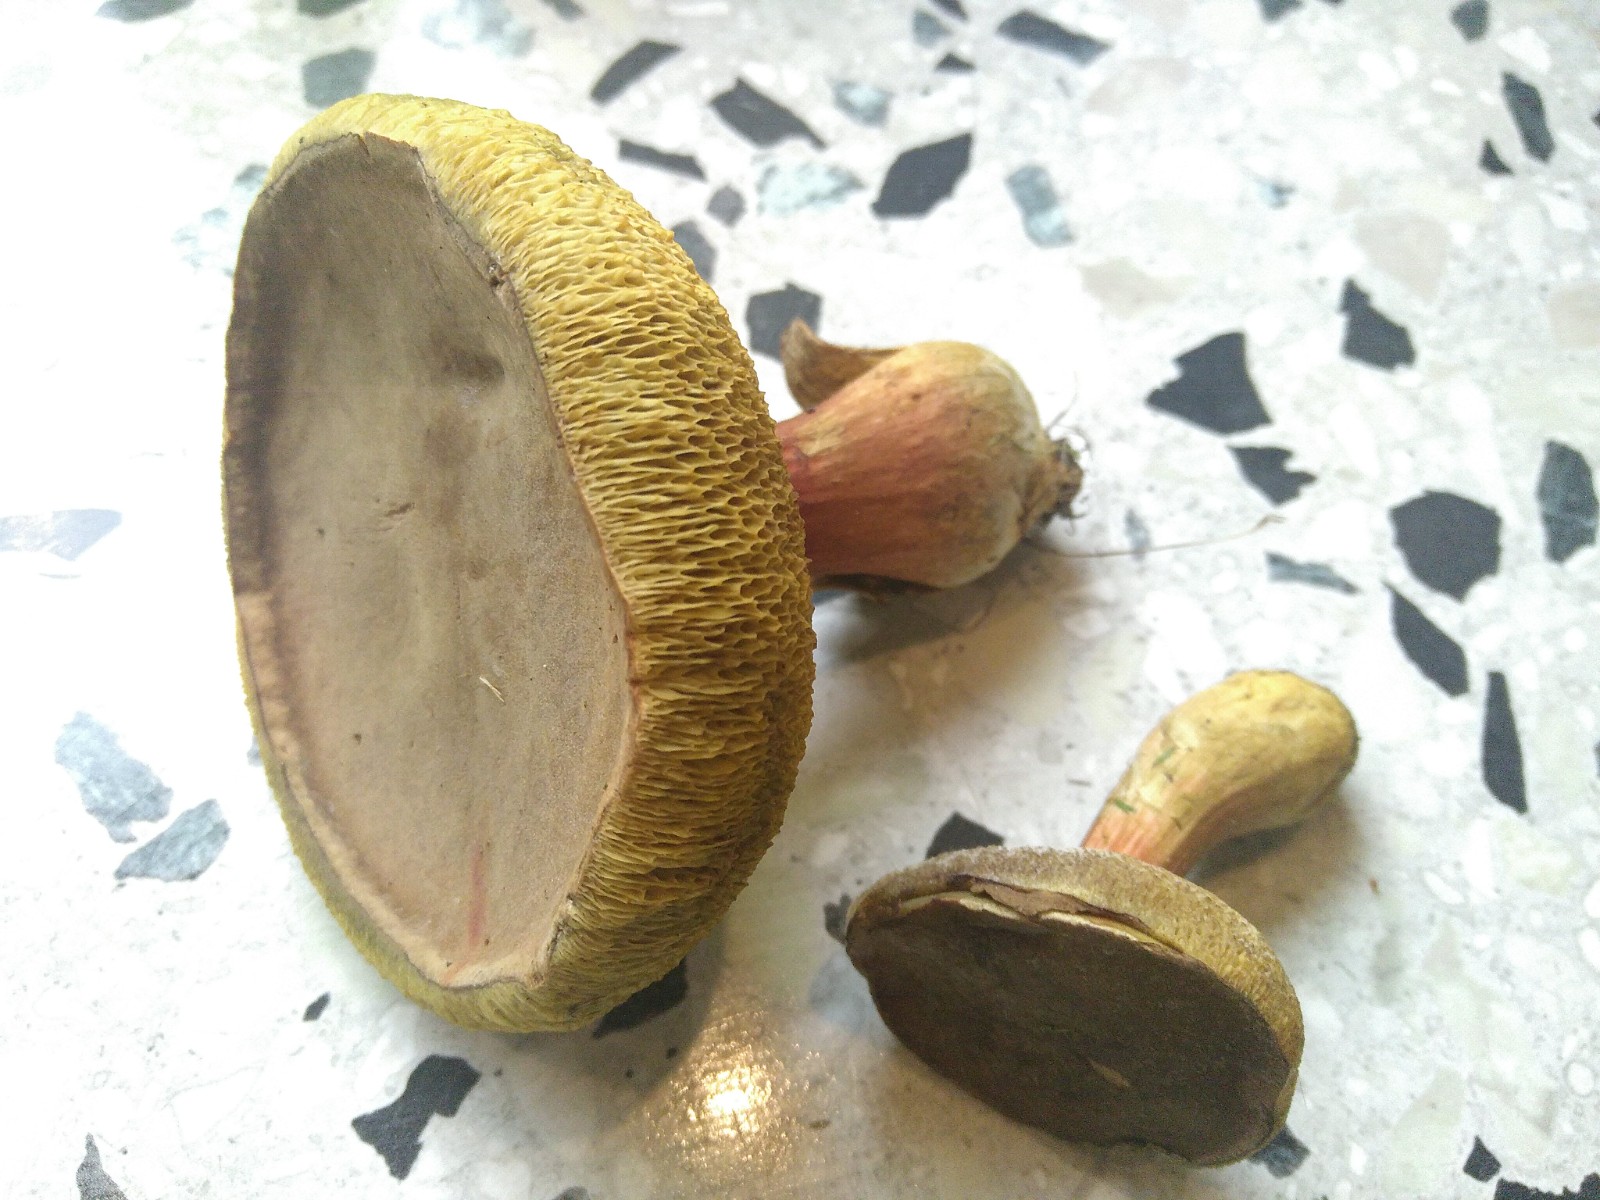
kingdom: Fungi
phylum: Basidiomycota
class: Agaricomycetes
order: Boletales
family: Boletaceae
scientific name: Boletaceae
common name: rørhatfamilien
